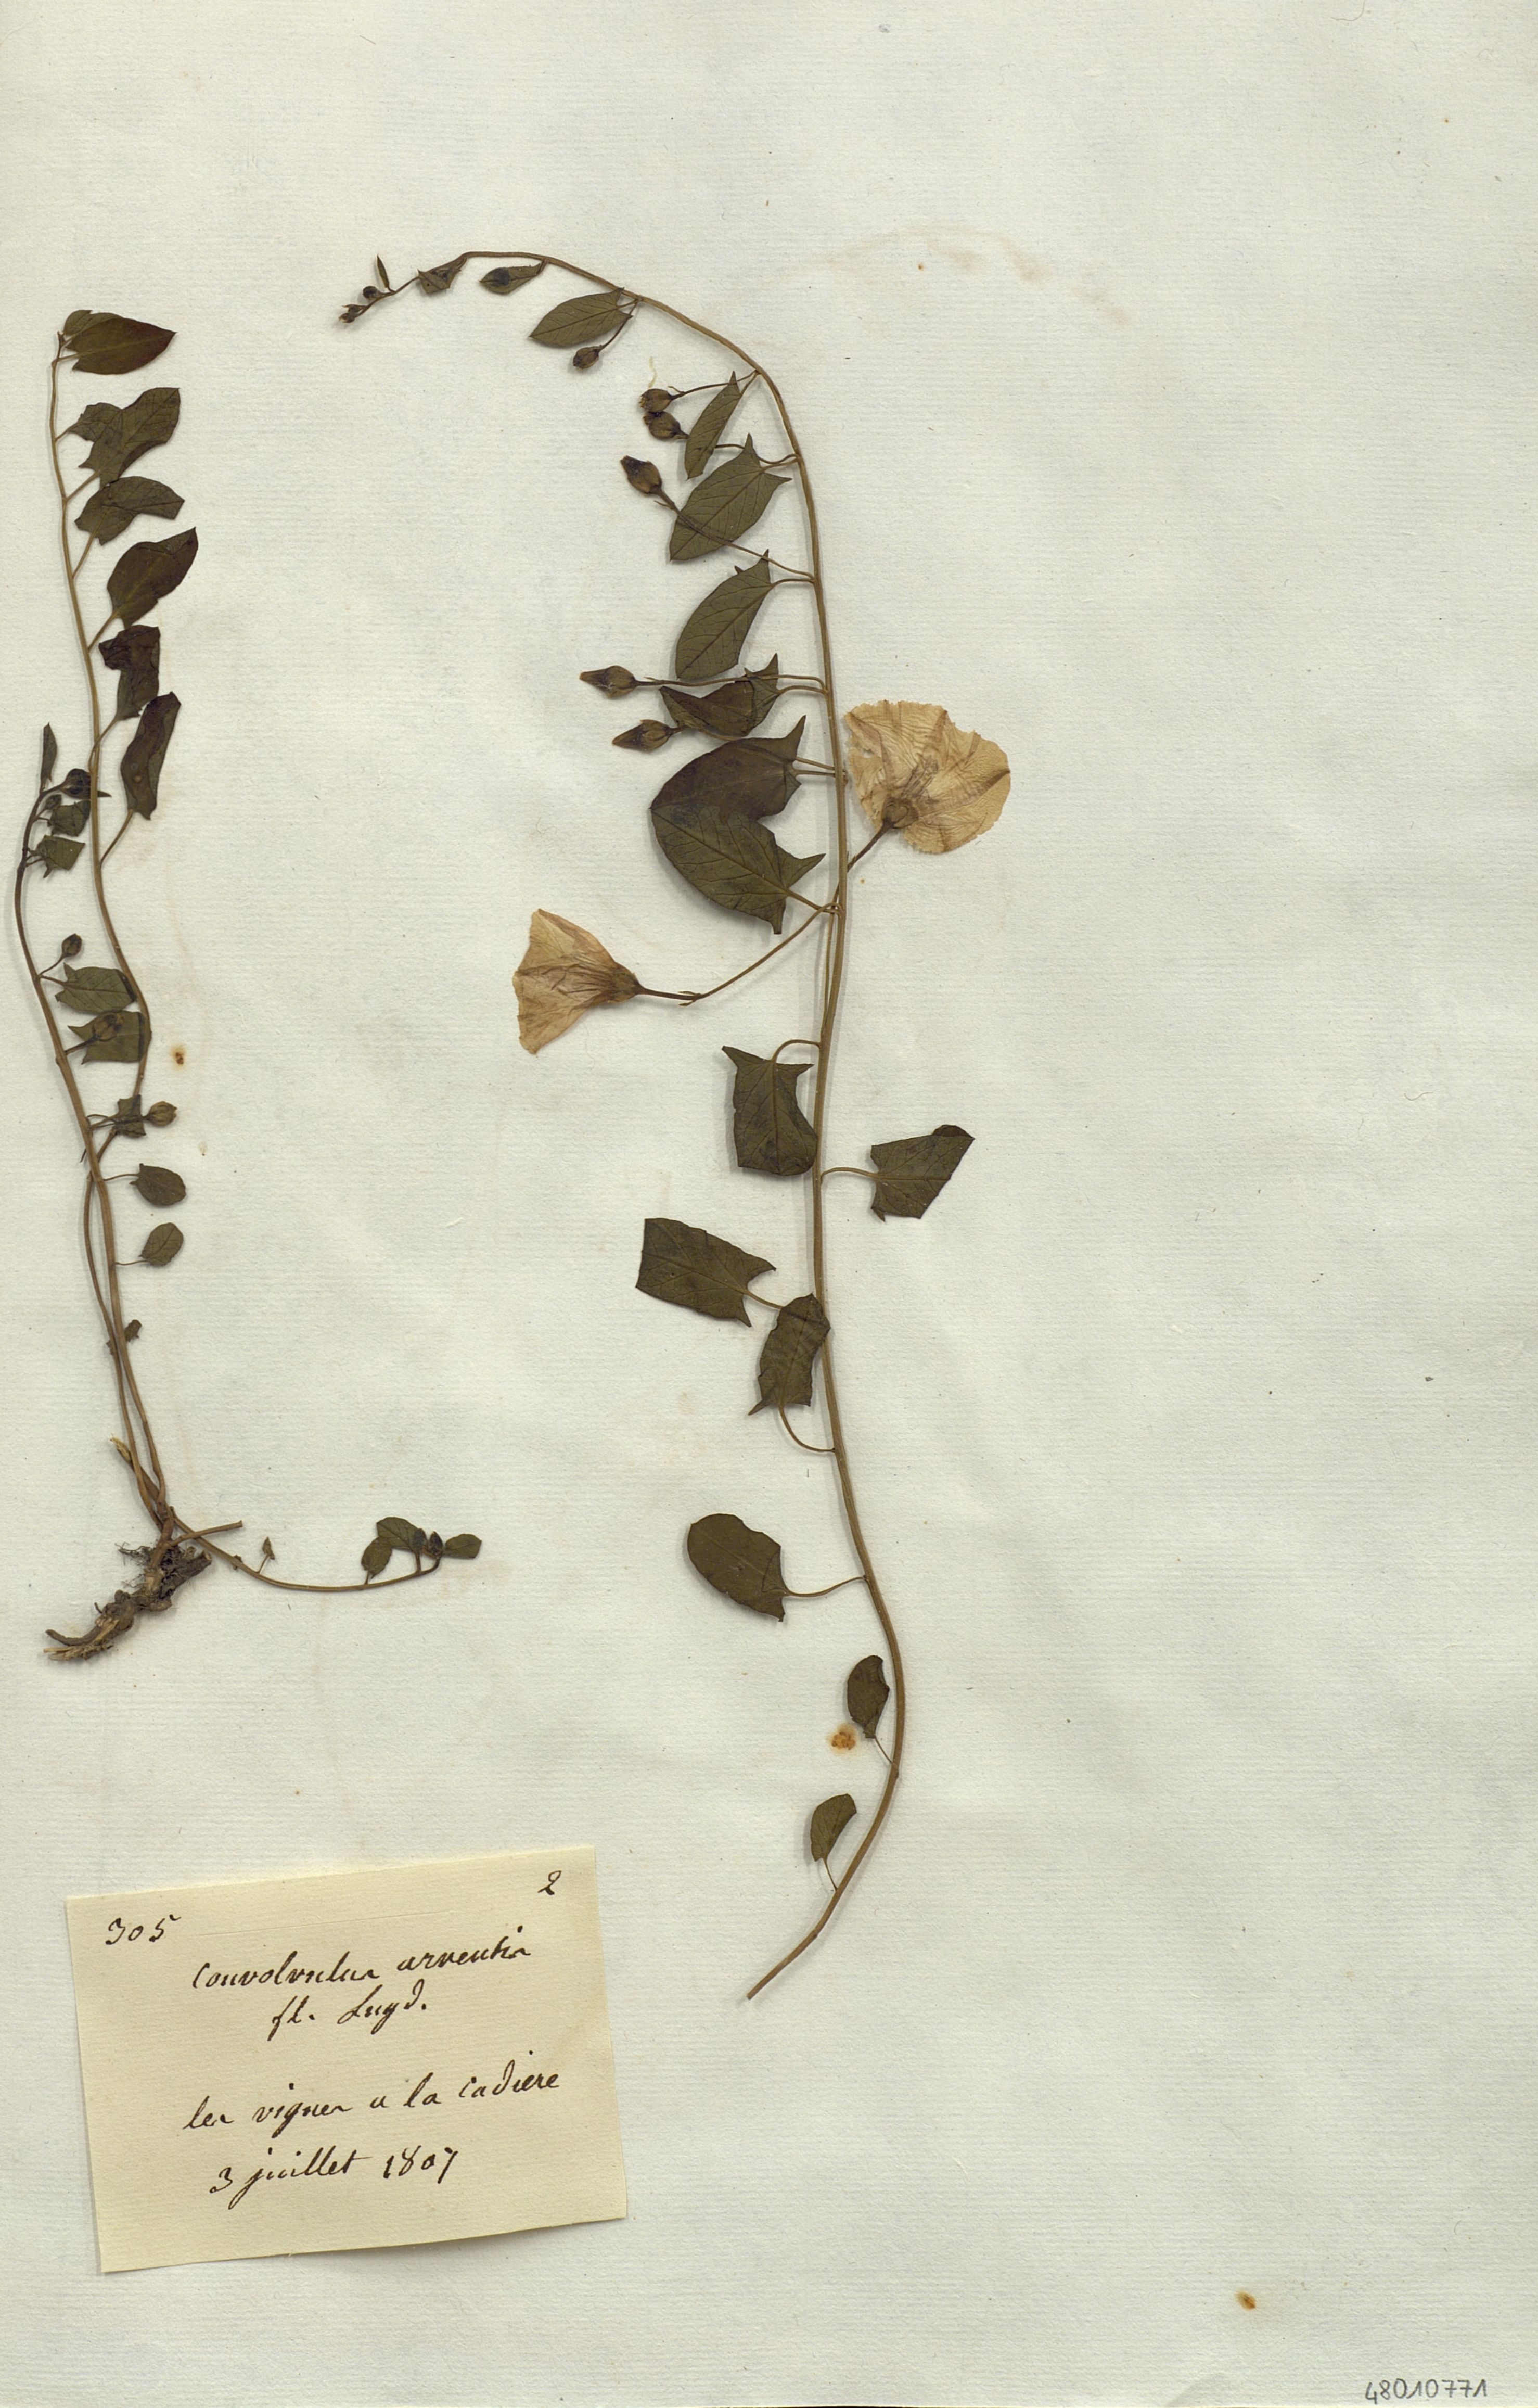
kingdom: Plantae
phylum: Tracheophyta
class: Magnoliopsida
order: Solanales
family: Convolvulaceae
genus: Convolvulus
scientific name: Convolvulus arvensis
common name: Field bindweed
